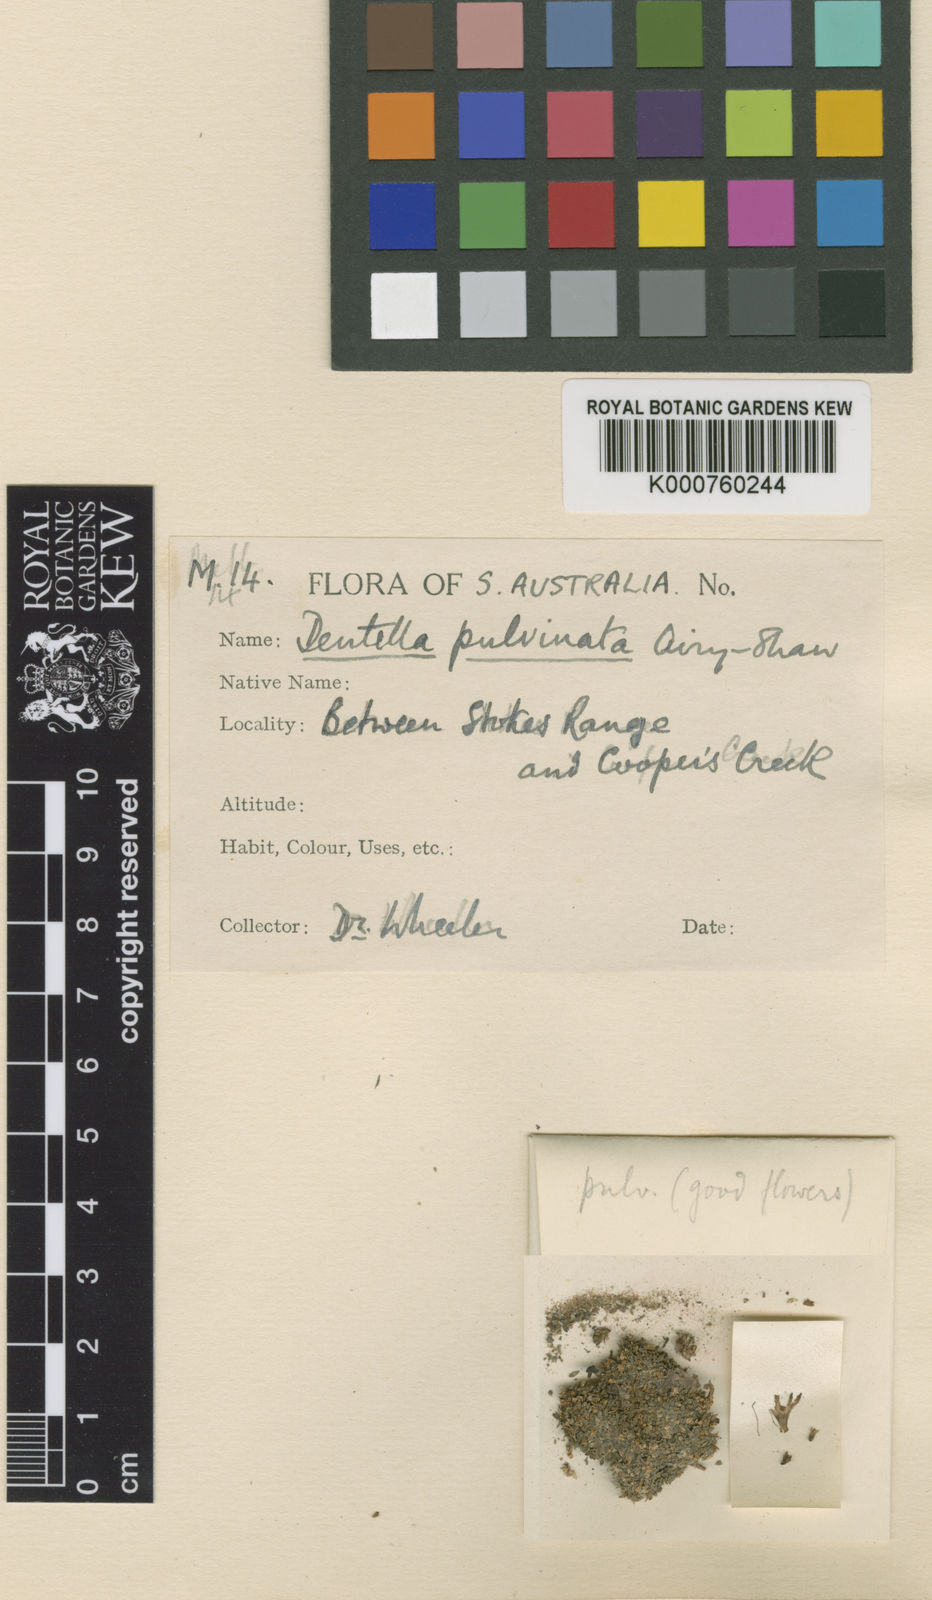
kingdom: Plantae
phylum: Tracheophyta
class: Magnoliopsida
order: Gentianales
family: Rubiaceae
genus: Dentella
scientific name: Dentella pulvinata
